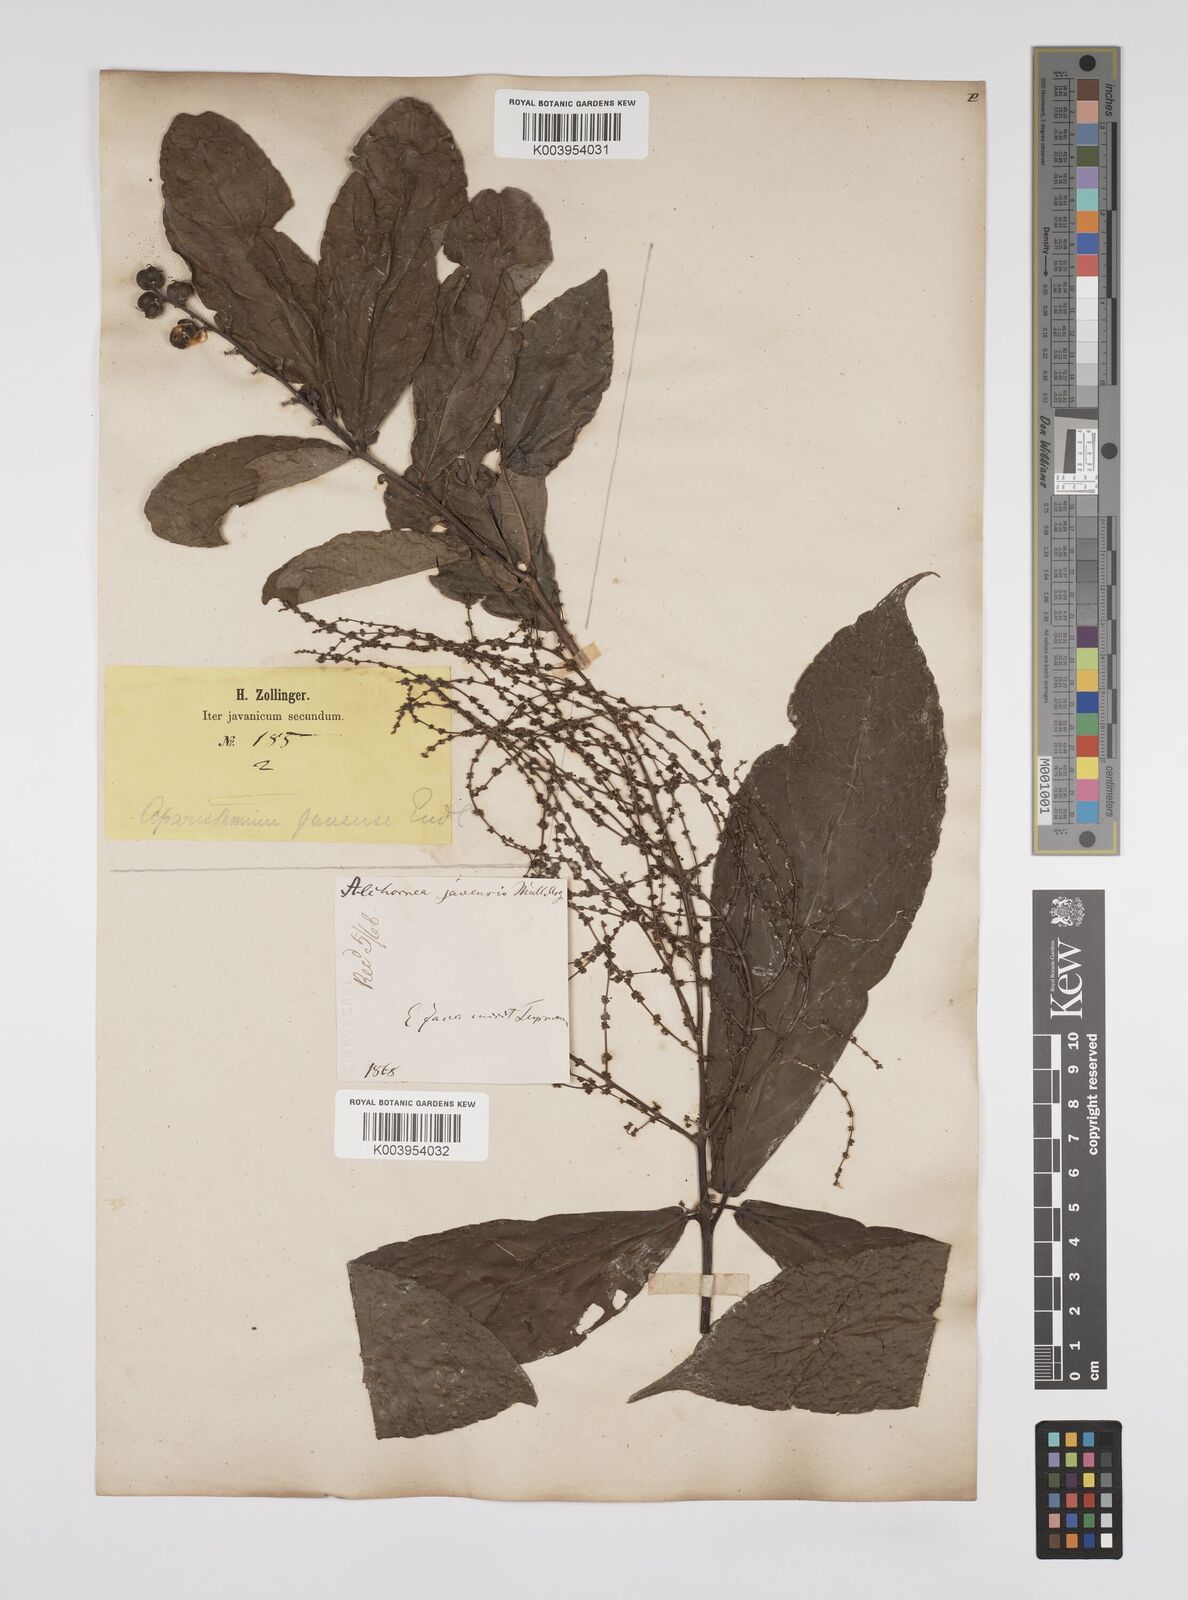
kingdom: Plantae
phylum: Tracheophyta
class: Magnoliopsida
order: Malpighiales
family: Euphorbiaceae
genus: Alchornea
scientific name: Alchornea rugosa
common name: Alchorntree
